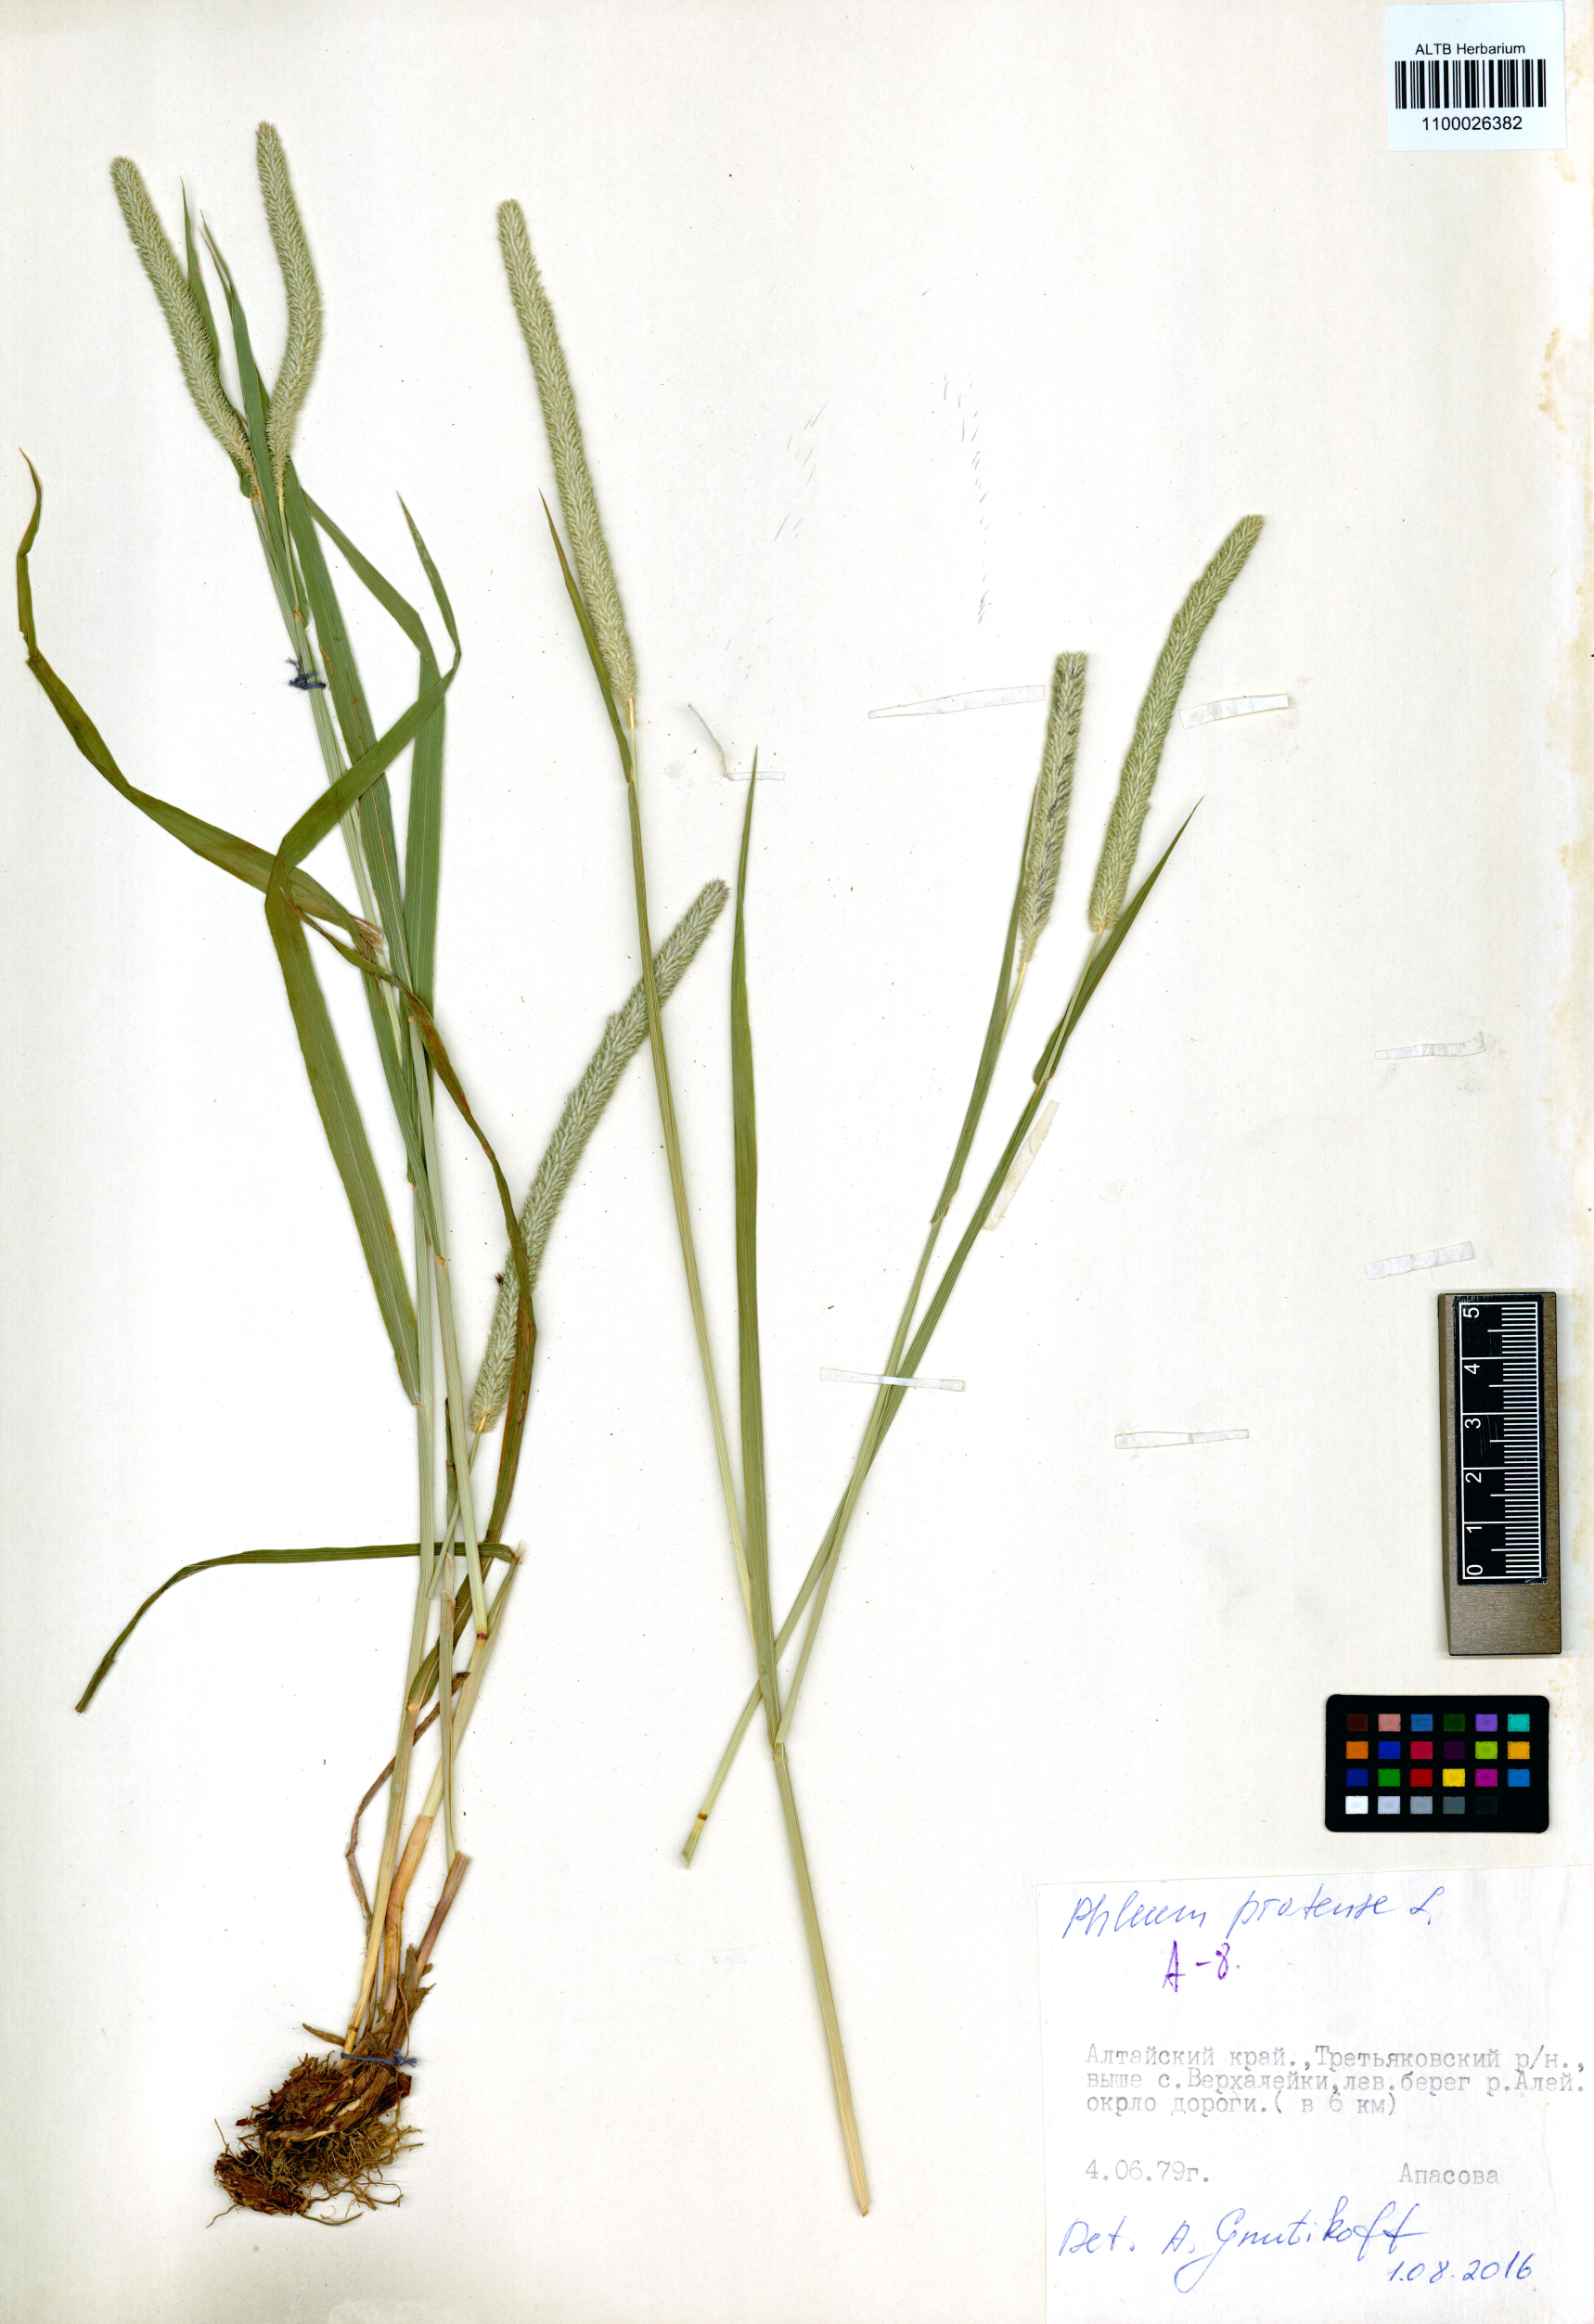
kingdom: Plantae
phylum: Tracheophyta
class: Liliopsida
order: Poales
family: Poaceae
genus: Phleum
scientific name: Phleum pratense
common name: Timothy grass
